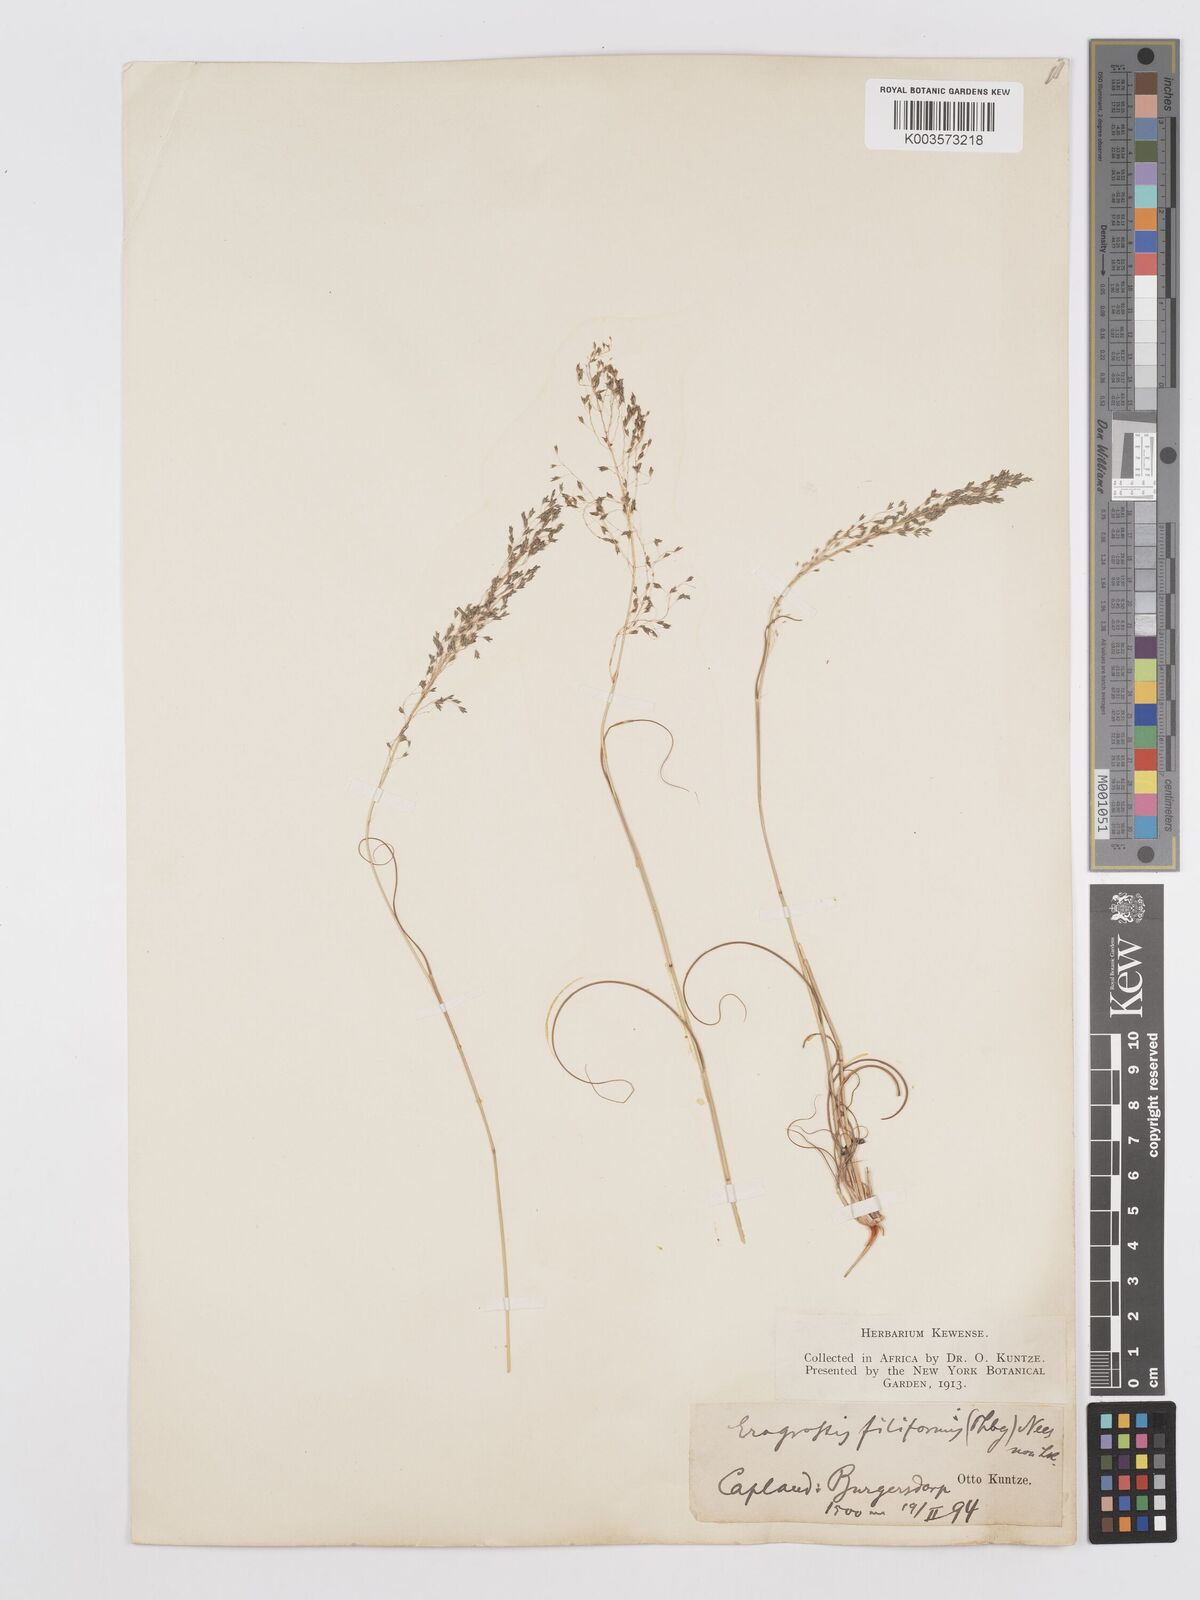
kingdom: Plantae
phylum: Tracheophyta
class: Liliopsida
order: Poales
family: Poaceae
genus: Eragrostis
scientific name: Eragrostis curvula
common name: African love-grass
